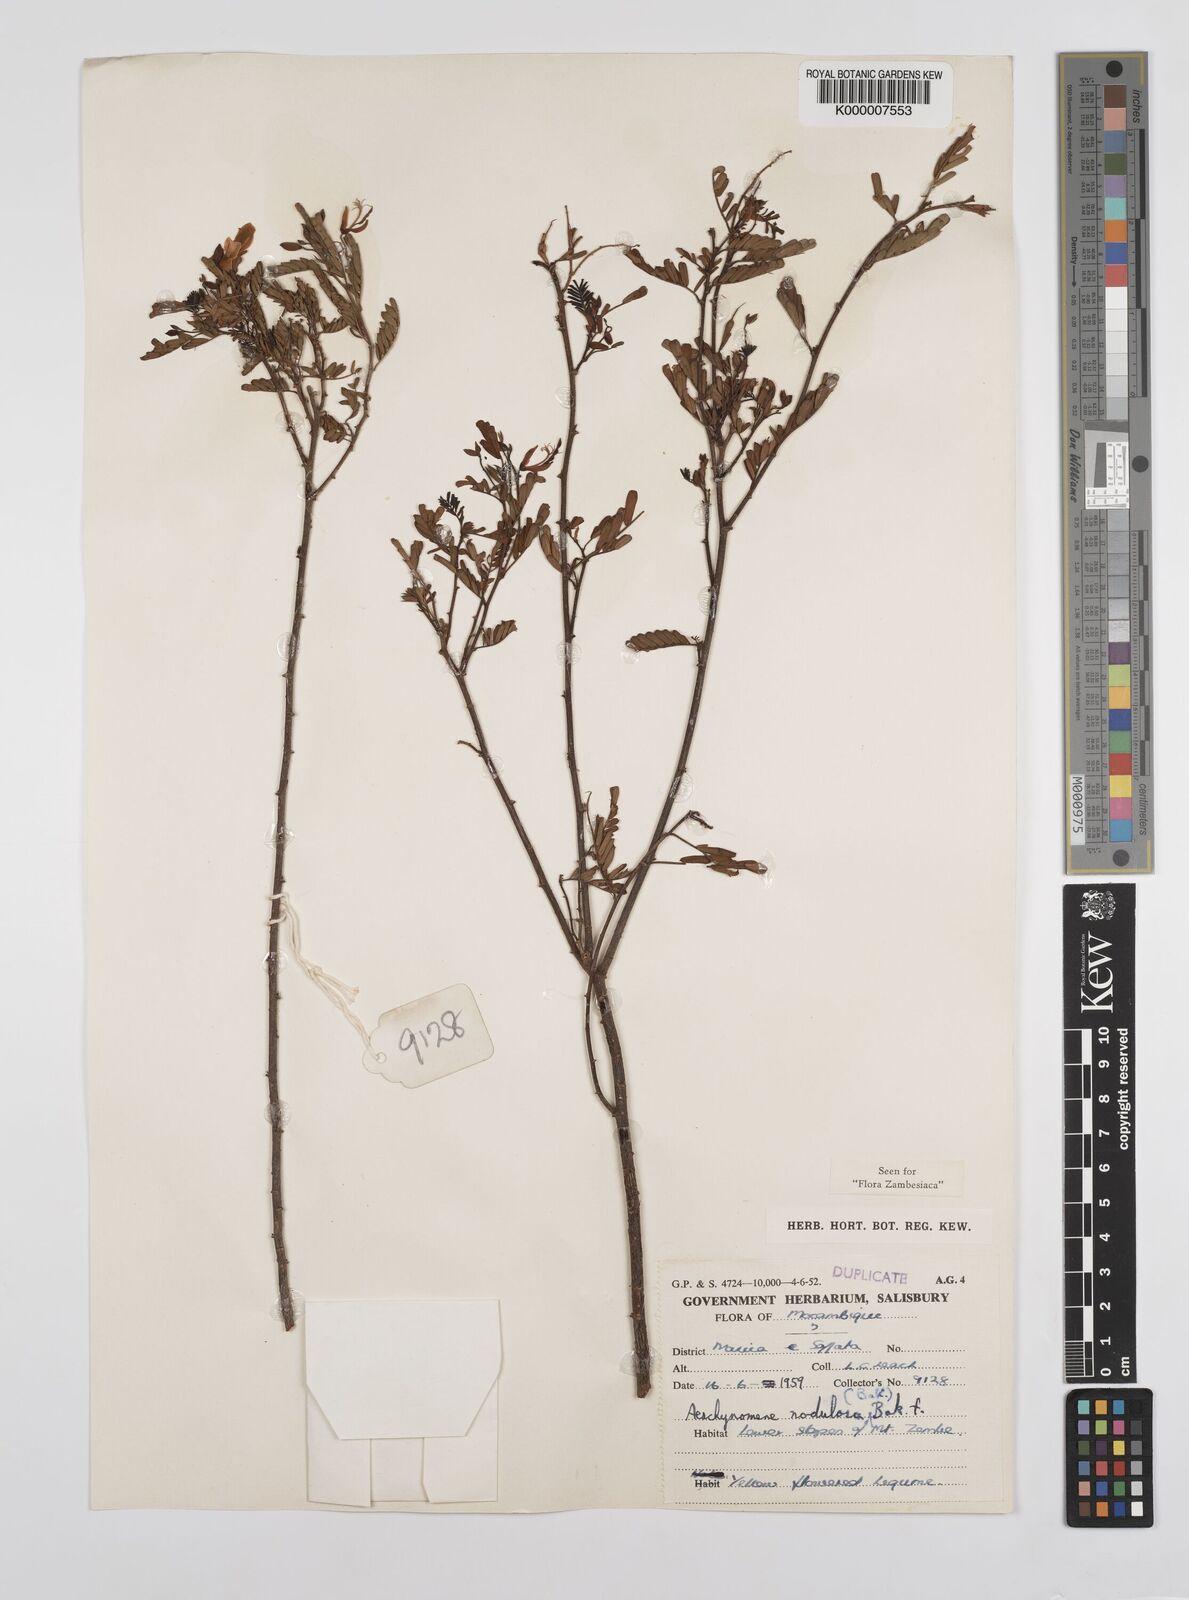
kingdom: Plantae
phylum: Tracheophyta
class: Magnoliopsida
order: Fabales
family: Fabaceae
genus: Aeschynomene
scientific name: Aeschynomene nodulosa
